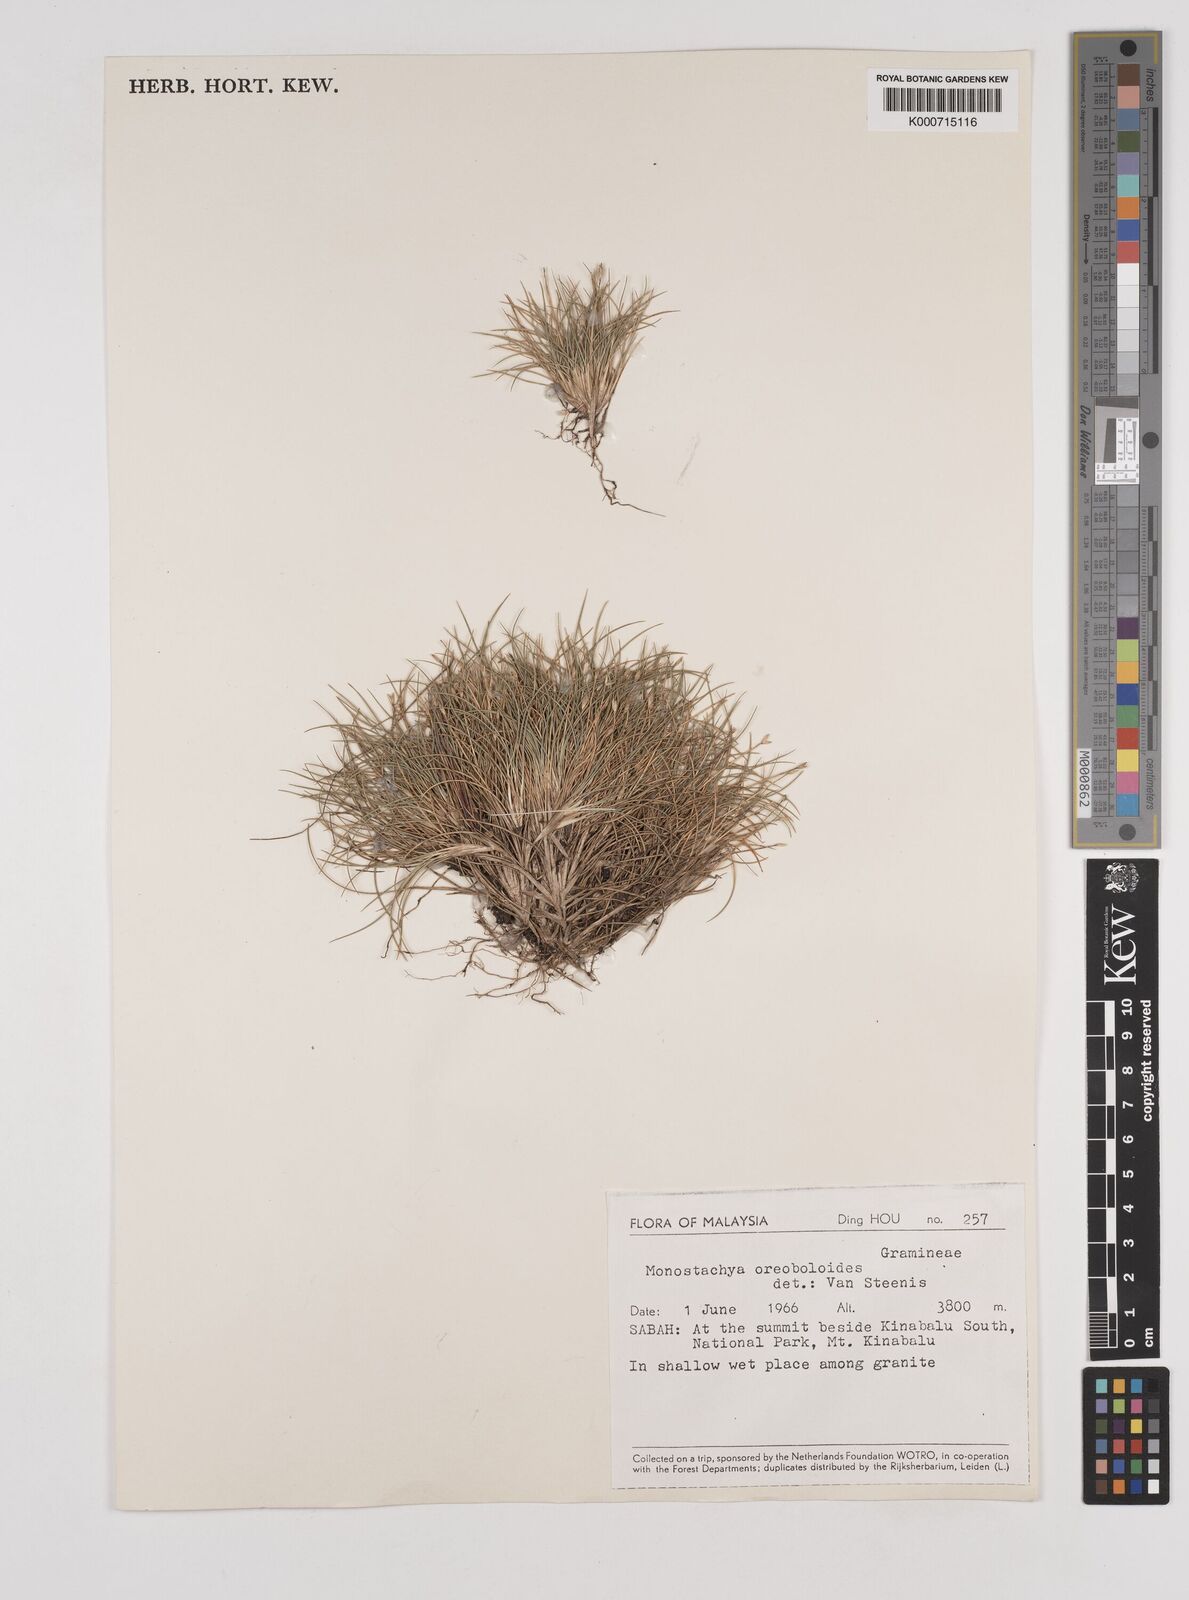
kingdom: Plantae
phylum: Tracheophyta
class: Liliopsida
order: Poales
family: Poaceae
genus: Rytidosperma
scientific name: Rytidosperma oreoboloides
